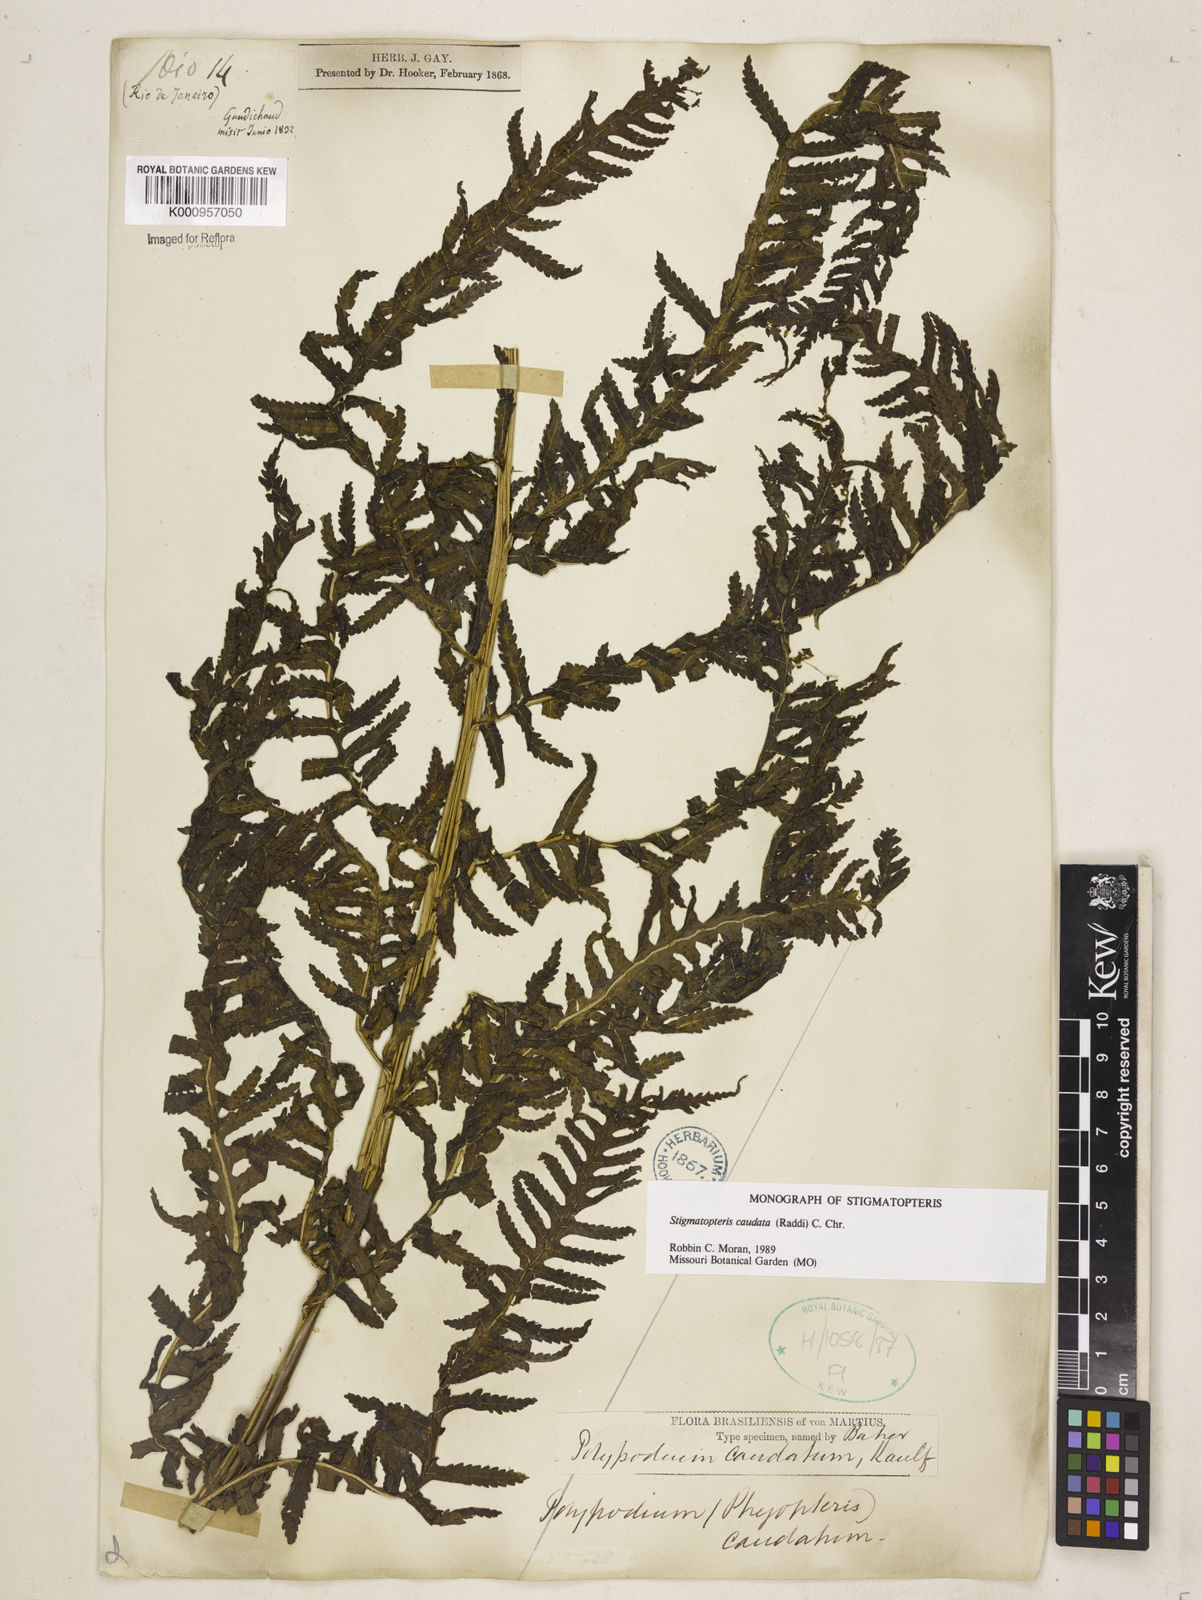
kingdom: Plantae
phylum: Tracheophyta
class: Polypodiopsida
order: Polypodiales
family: Dryopteridaceae
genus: Stigmatopteris
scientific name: Stigmatopteris caudata
